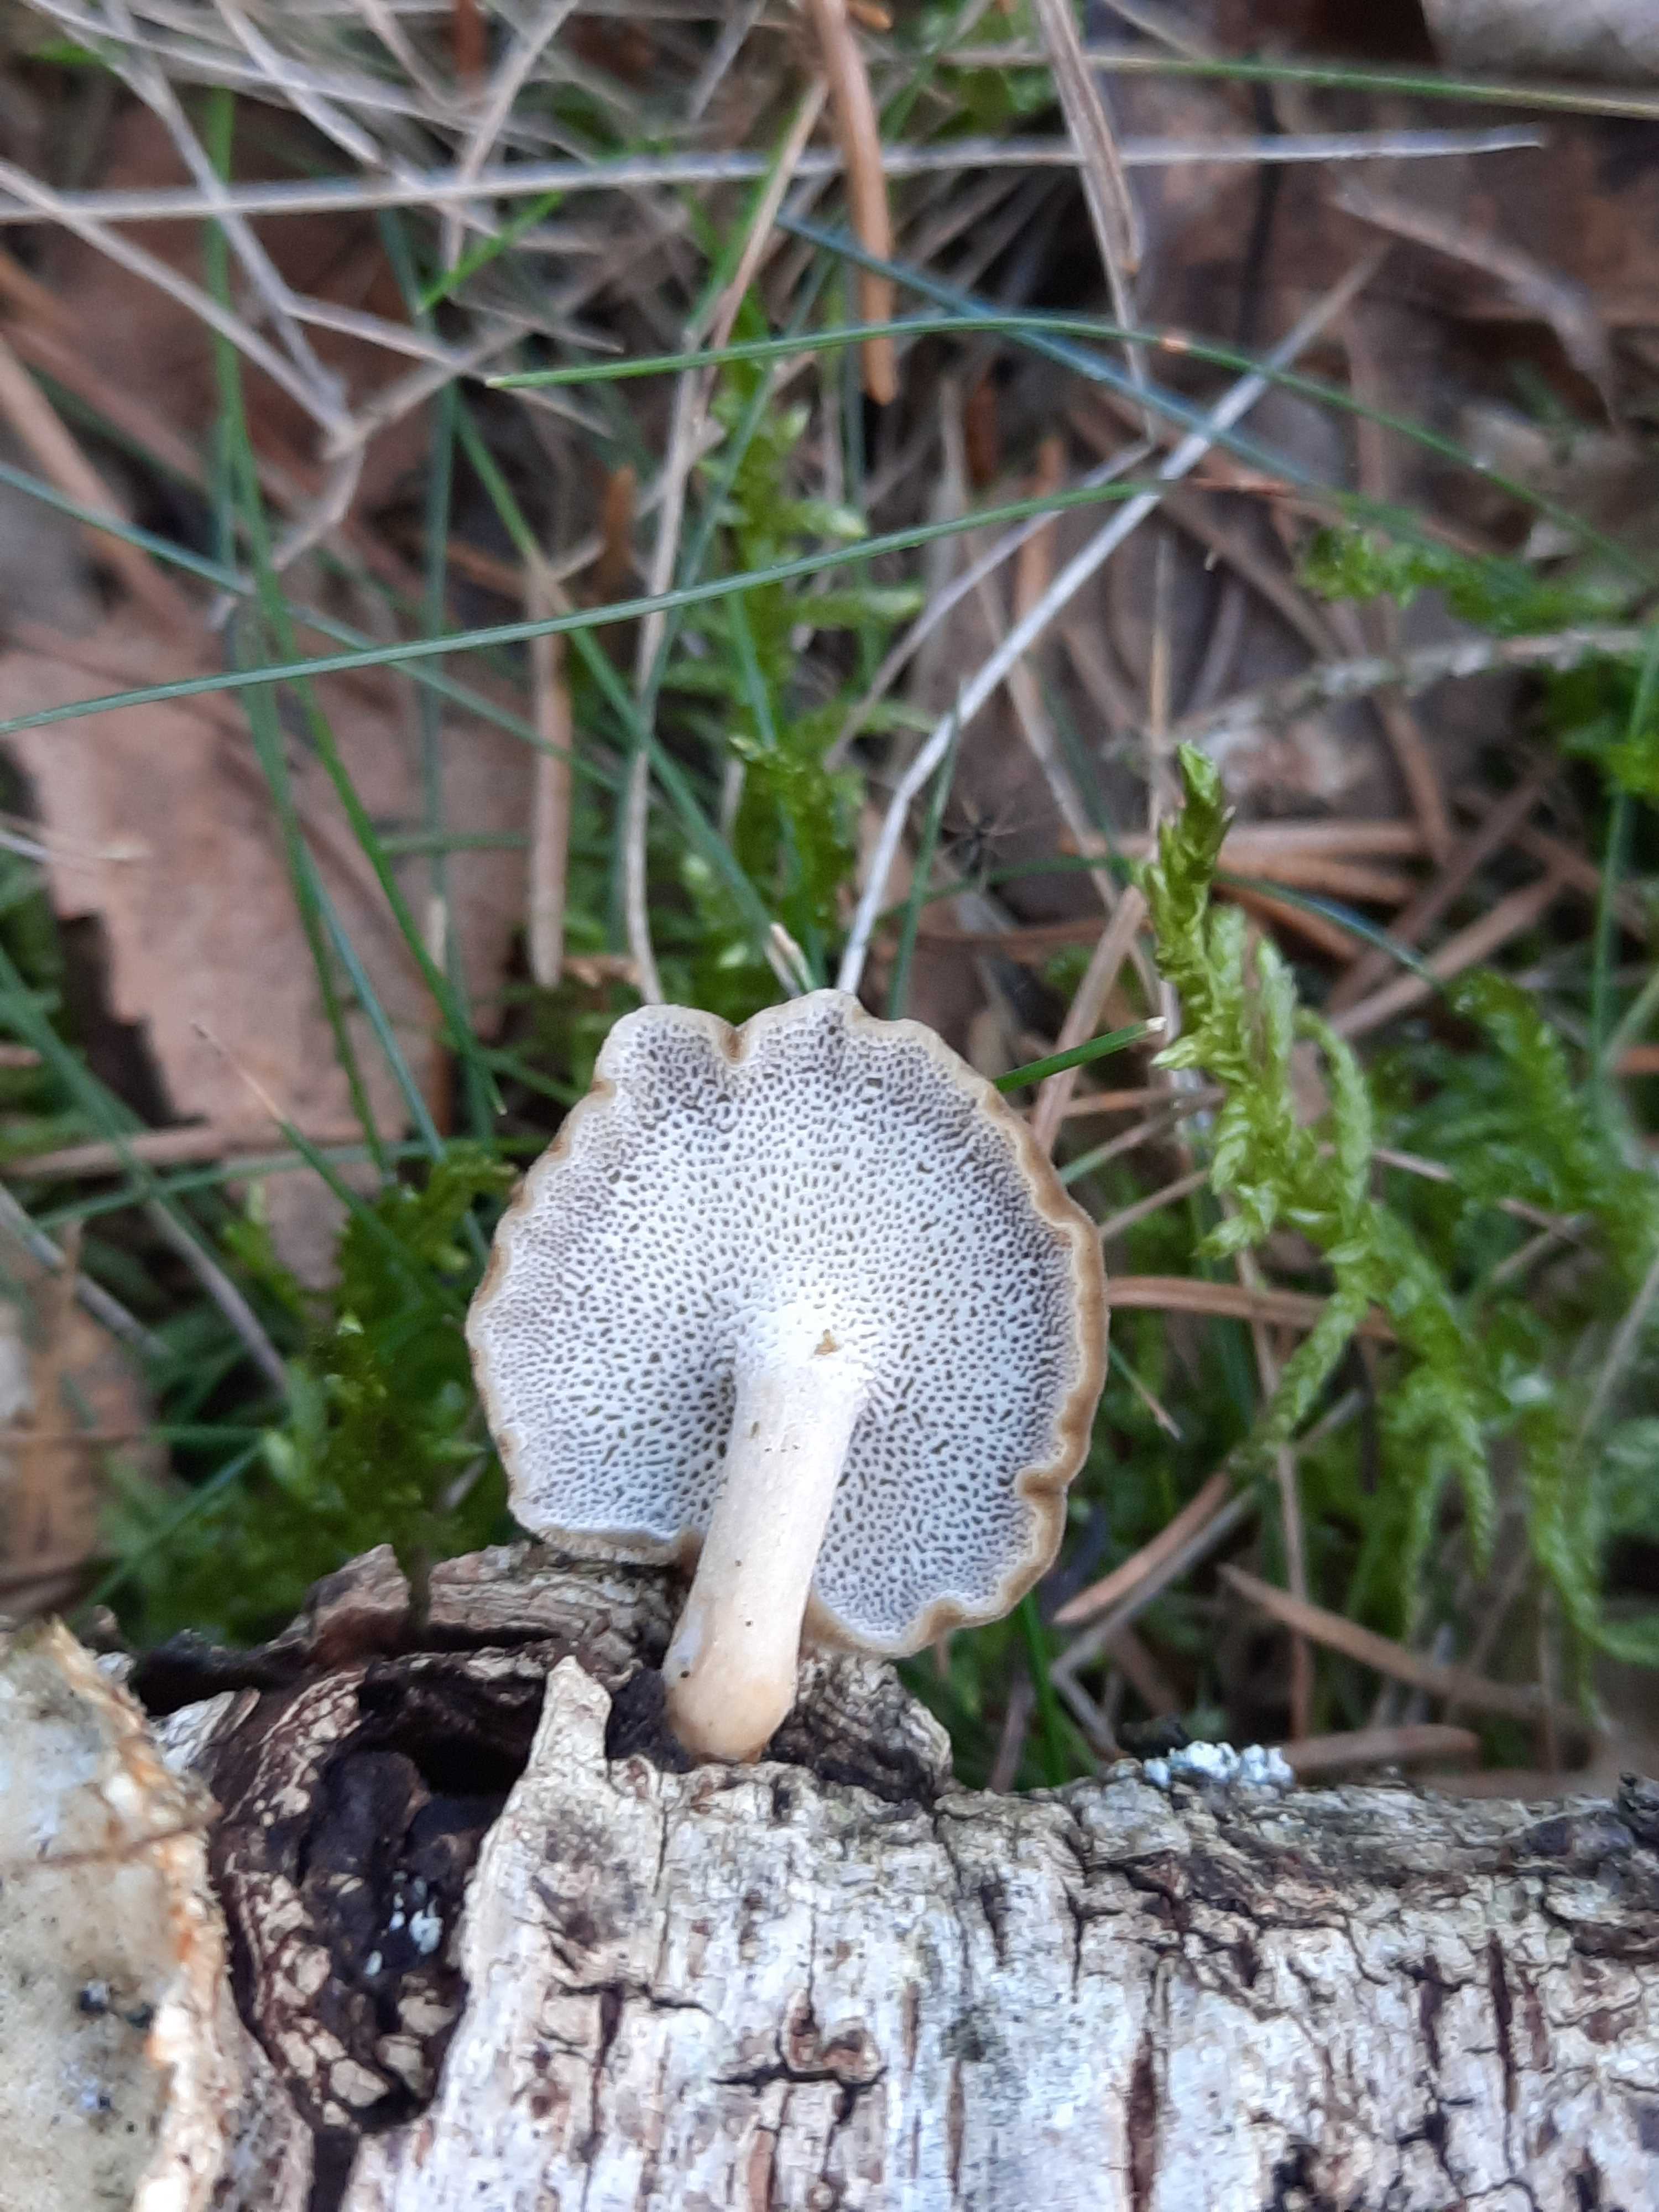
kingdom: Fungi
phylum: Basidiomycota
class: Agaricomycetes
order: Polyporales
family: Polyporaceae
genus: Lentinus
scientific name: Lentinus brumalis
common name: vinter-stilkporesvamp
